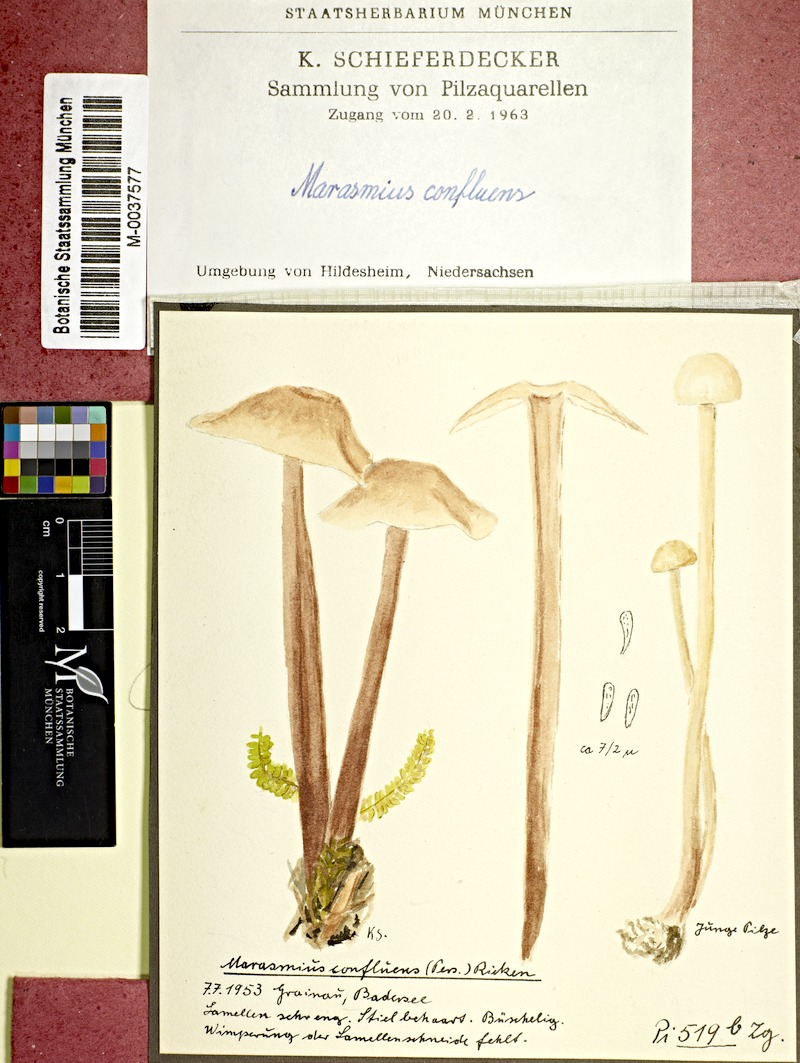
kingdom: Fungi
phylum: Basidiomycota
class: Agaricomycetes
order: Agaricales
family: Omphalotaceae
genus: Collybiopsis
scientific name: Collybiopsis confluens
